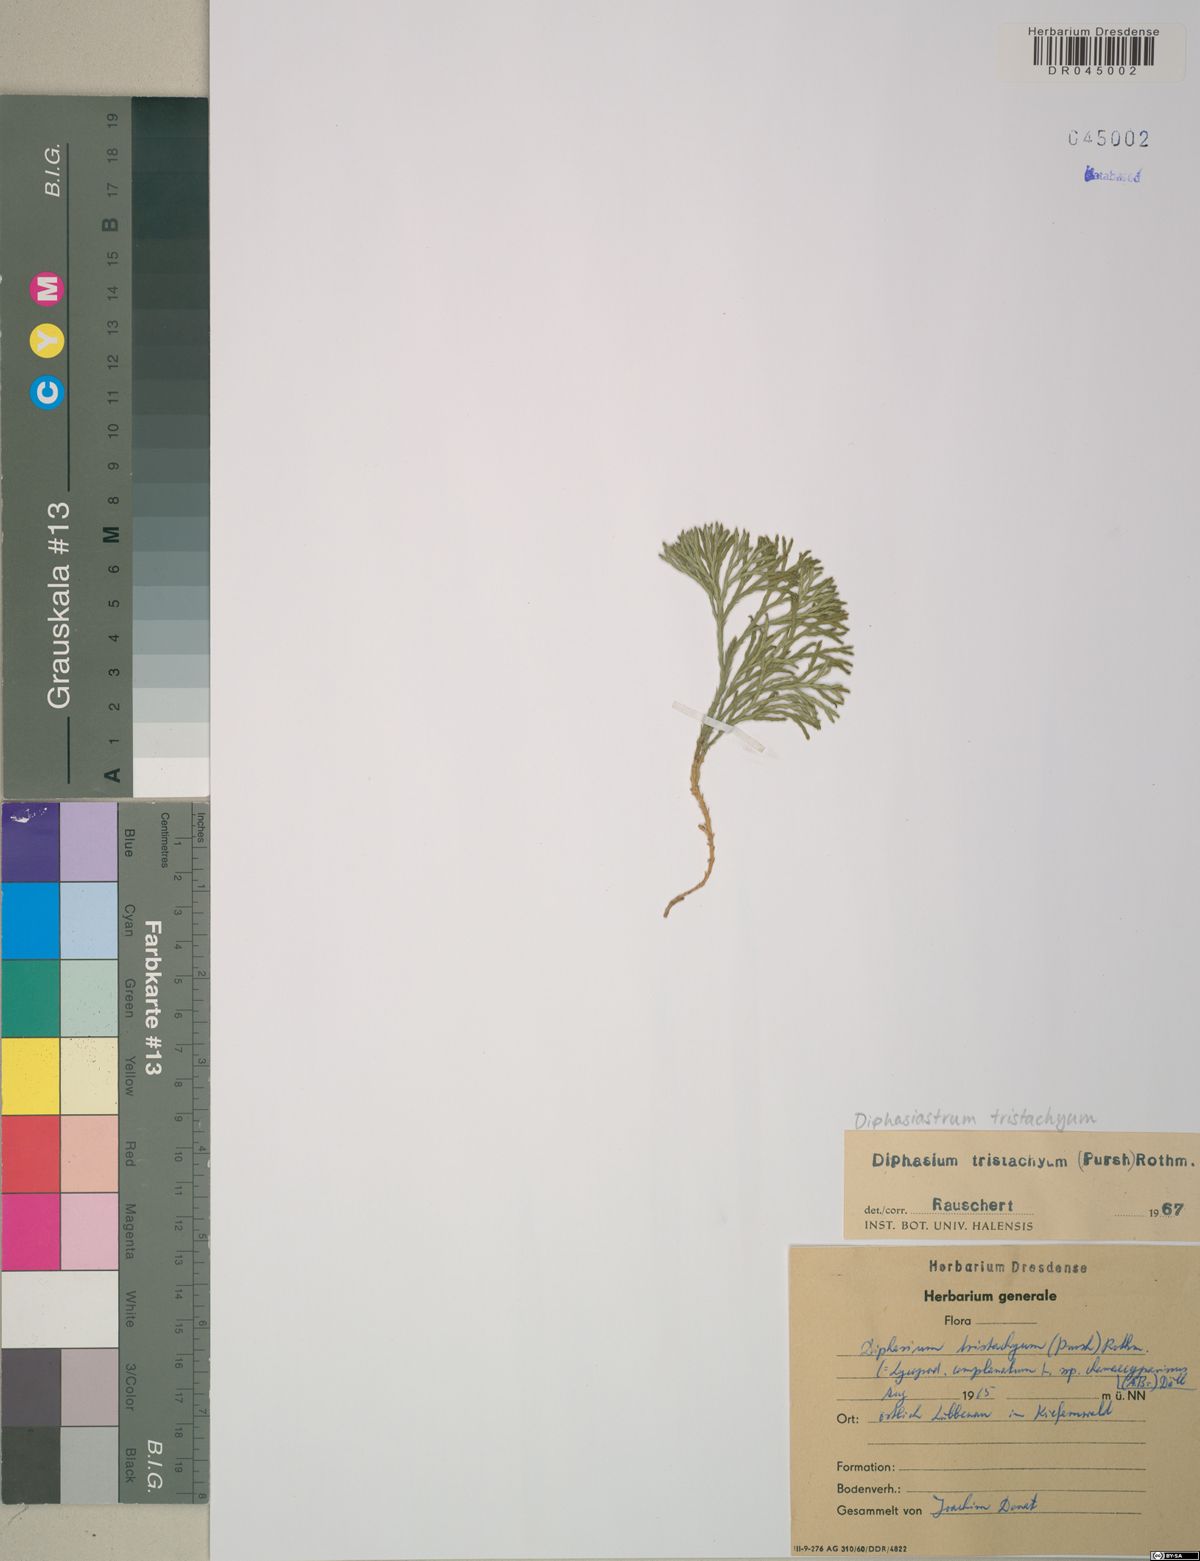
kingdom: Plantae
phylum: Tracheophyta
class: Lycopodiopsida
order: Lycopodiales
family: Lycopodiaceae
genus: Diphasiastrum
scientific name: Diphasiastrum tristachyum
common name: Blue ground-cedar
